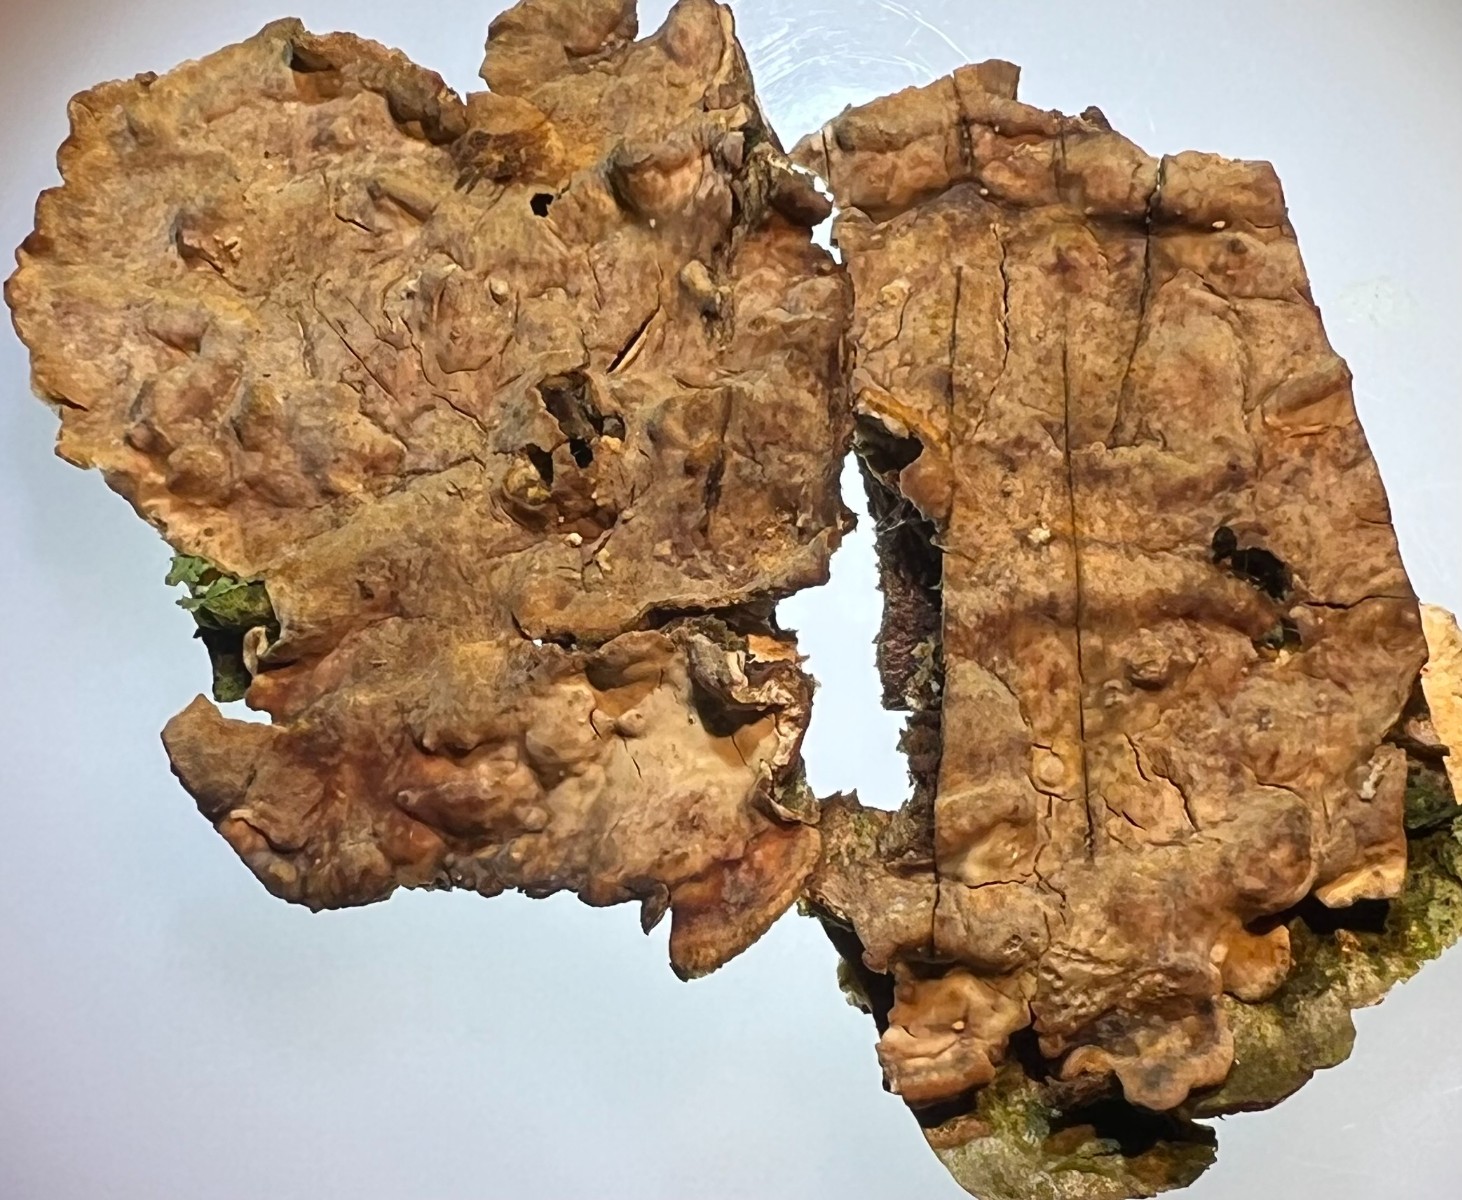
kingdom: Fungi
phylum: Basidiomycota
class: Agaricomycetes
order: Russulales
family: Stereaceae
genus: Stereum
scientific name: Stereum
